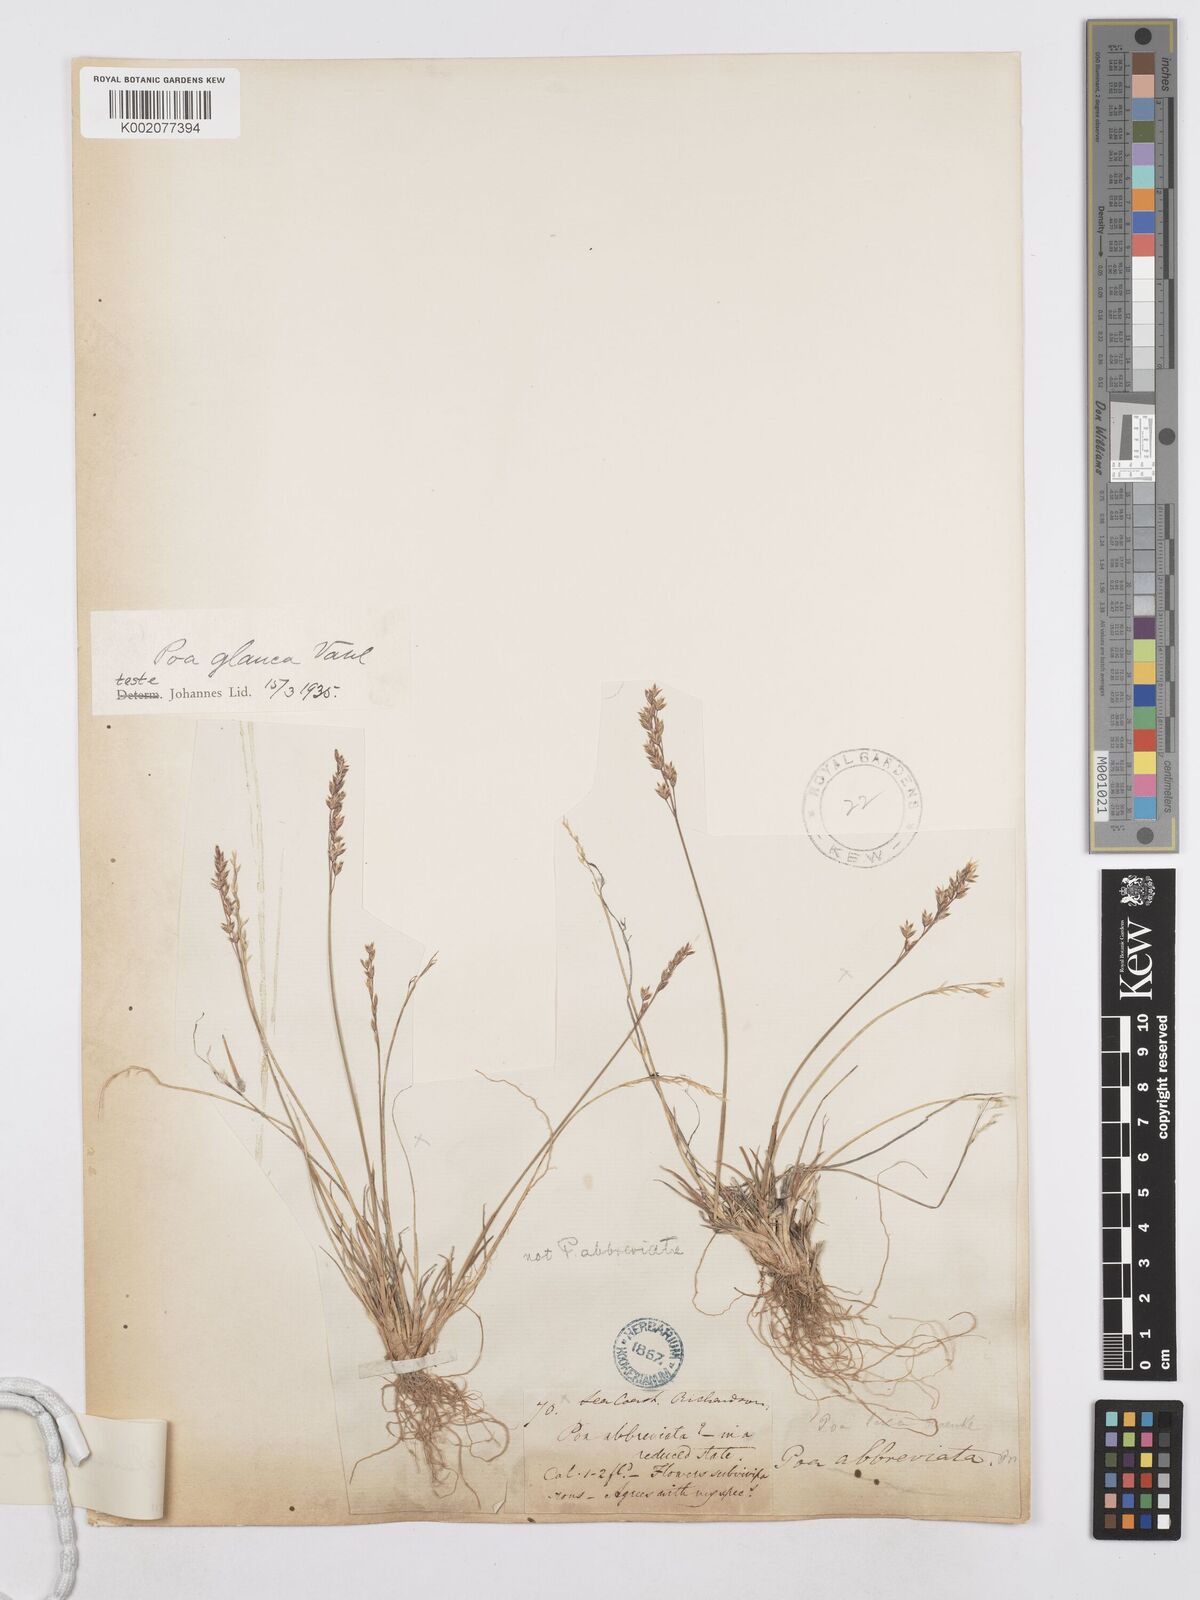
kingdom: Plantae
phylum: Tracheophyta
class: Liliopsida
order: Poales
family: Poaceae
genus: Poa
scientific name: Poa glauca
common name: Glaucous bluegrass
